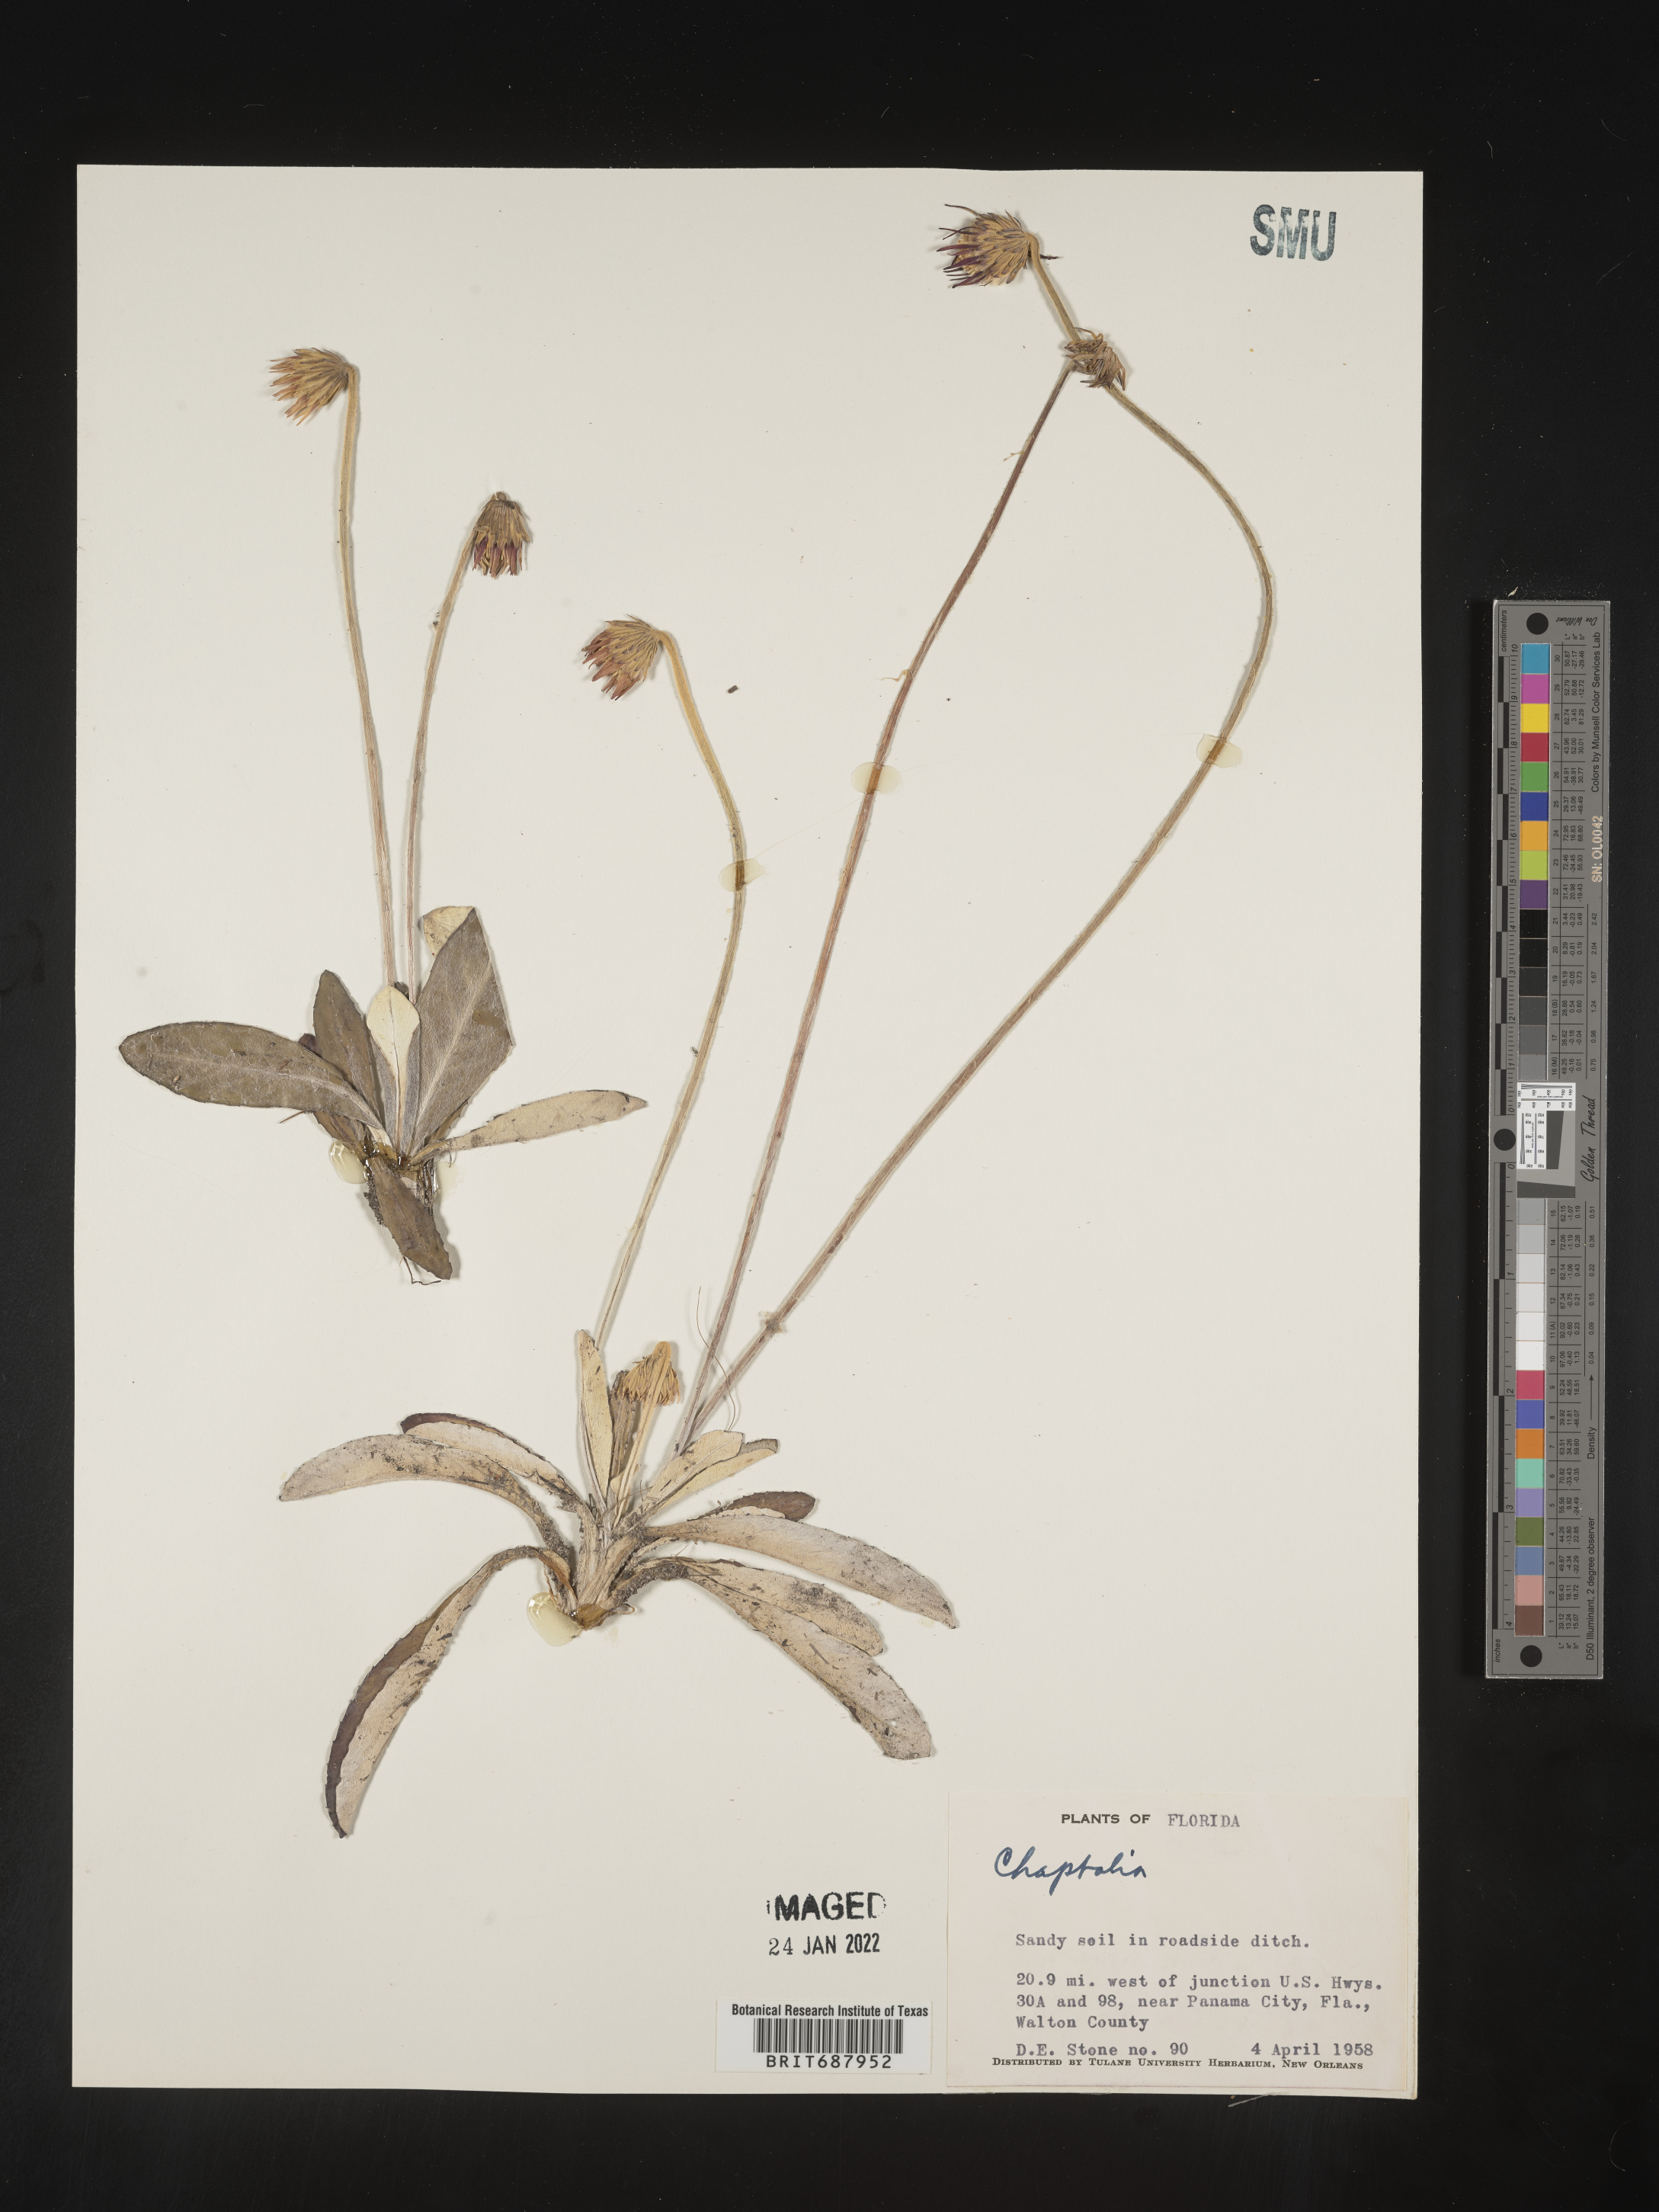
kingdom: Plantae
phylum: Tracheophyta
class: Magnoliopsida
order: Asterales
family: Asteraceae
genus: Chaptalia
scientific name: Chaptalia tomentosa
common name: Woolly sunbonnet
